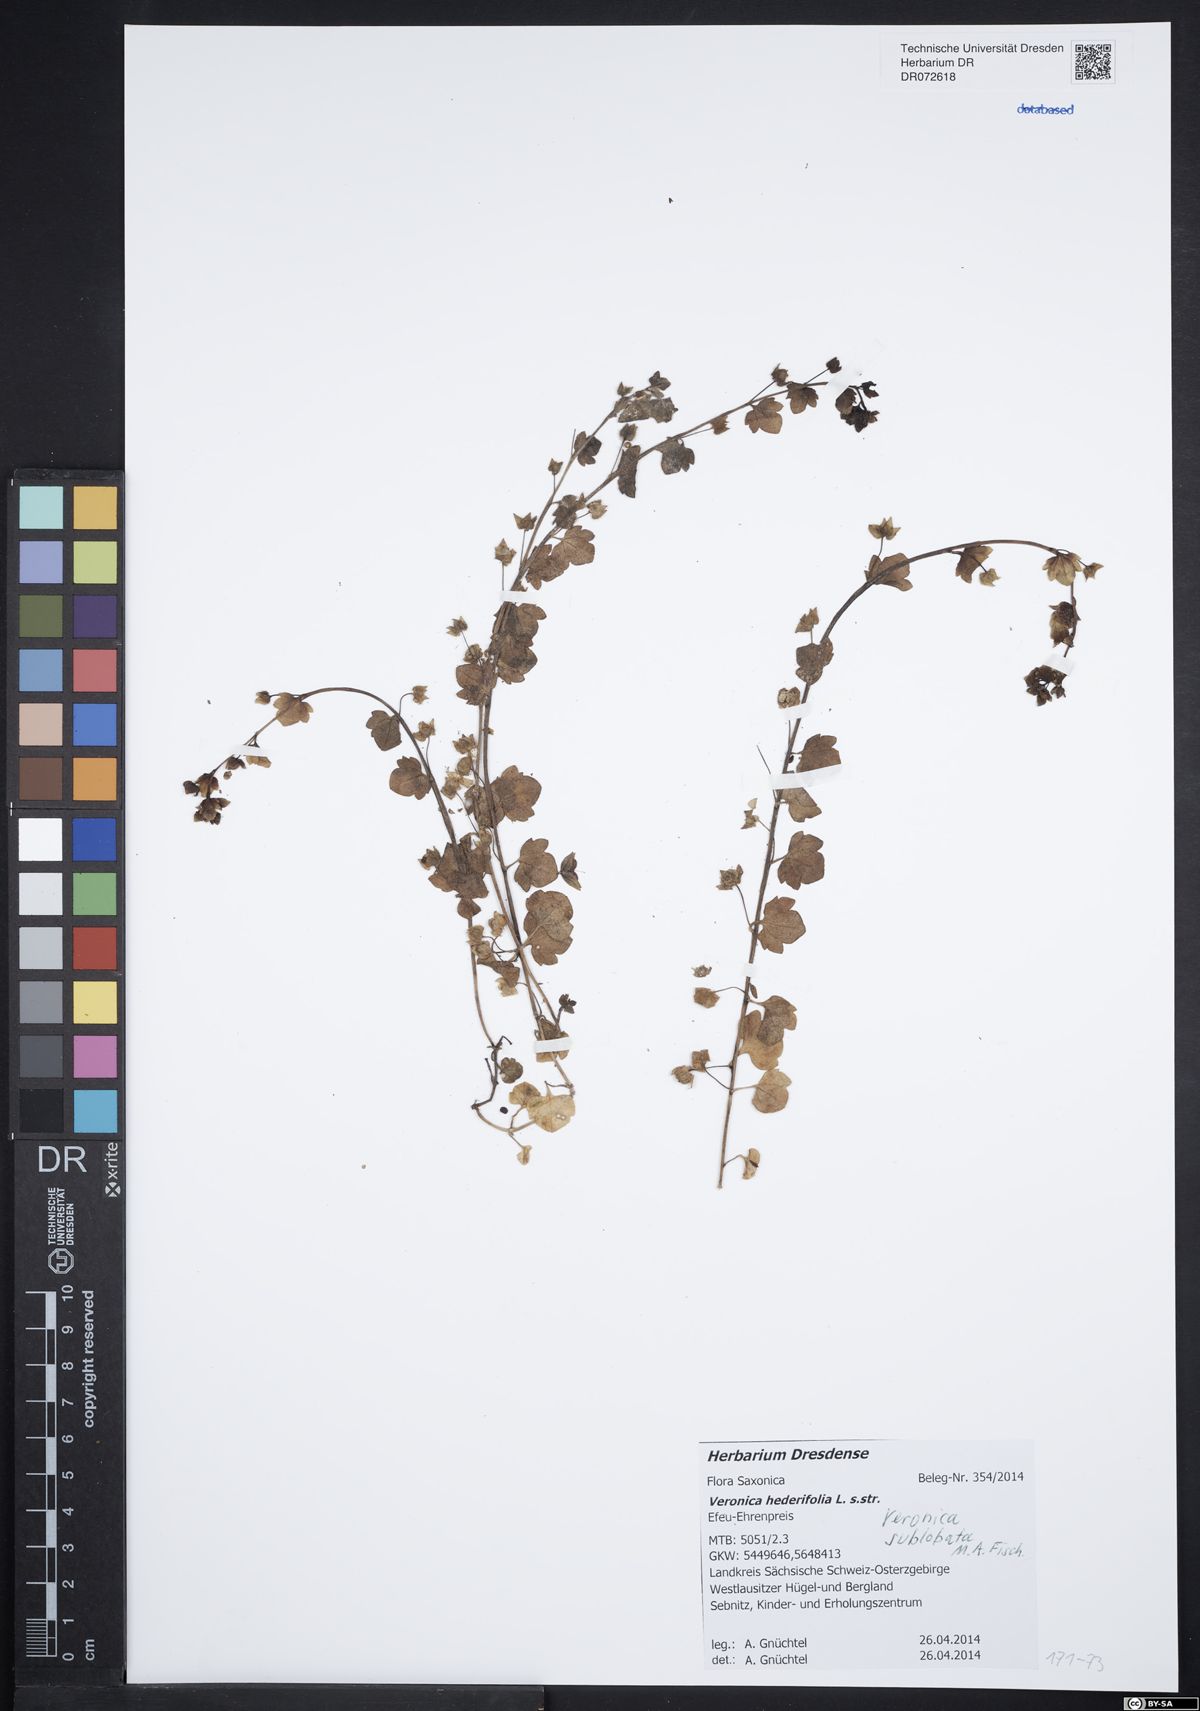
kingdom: Plantae
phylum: Tracheophyta
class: Magnoliopsida
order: Lamiales
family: Plantaginaceae
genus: Veronica
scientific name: Veronica sublobata
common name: False ivy-leaved speedwell
